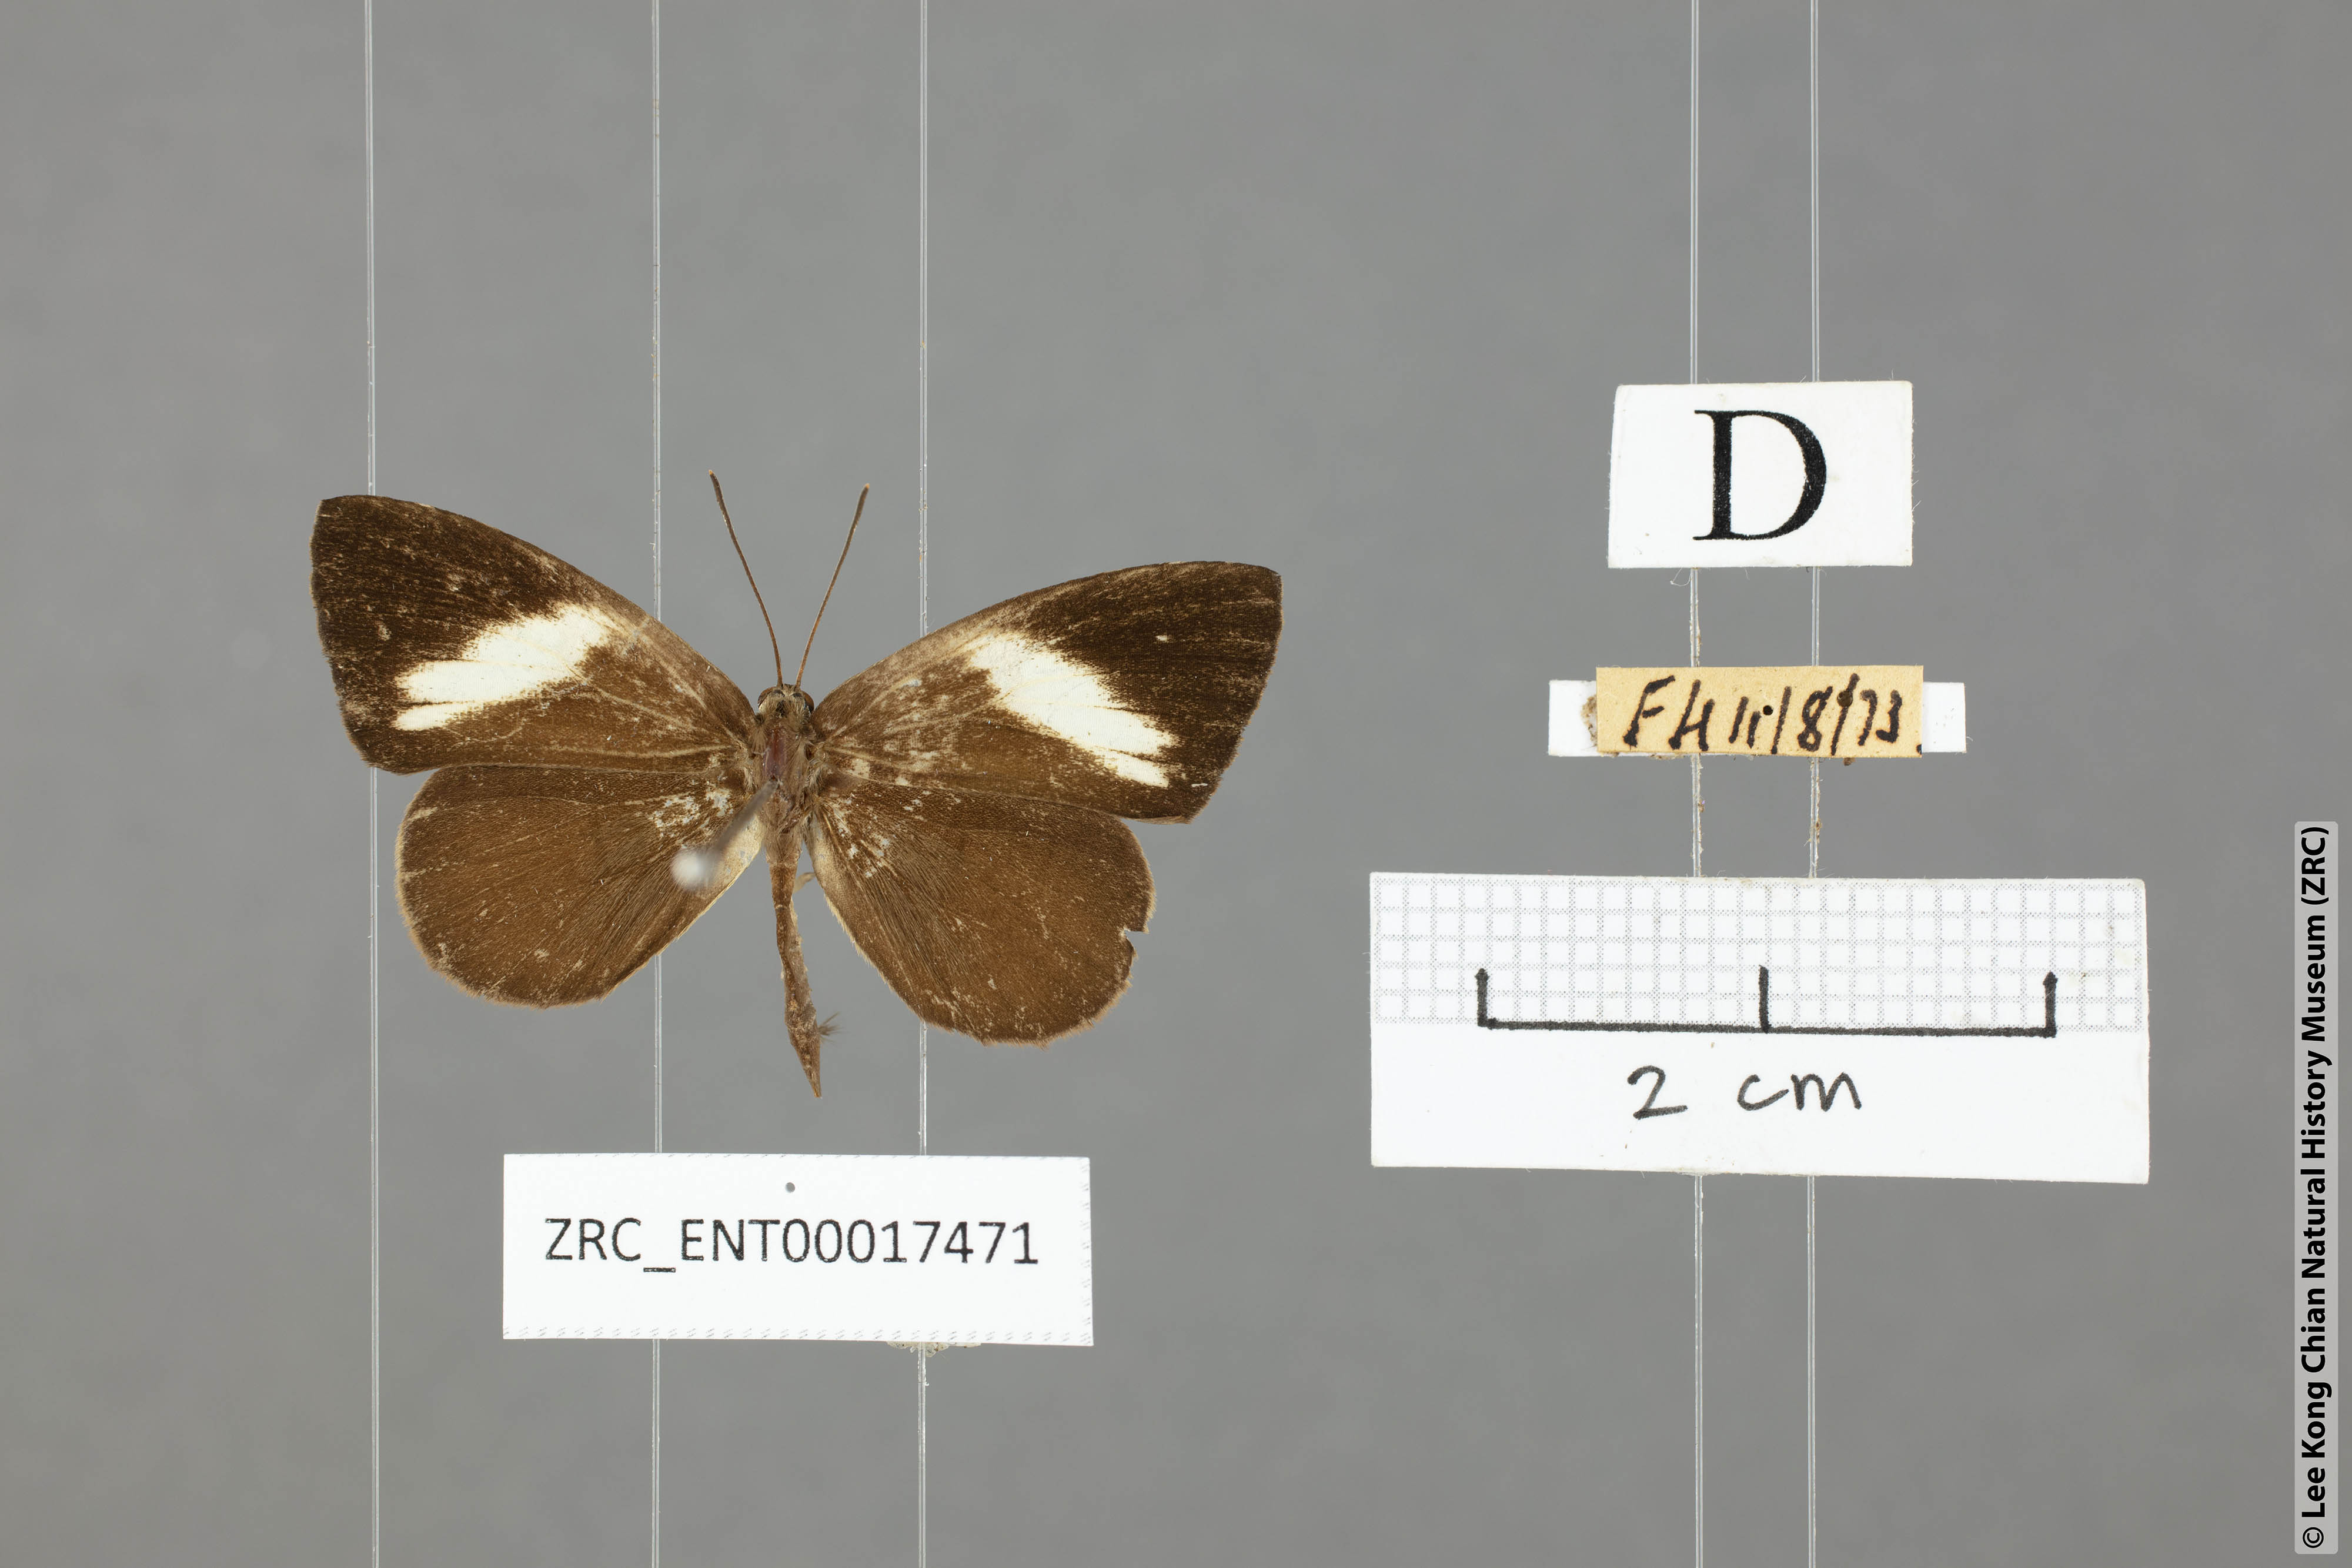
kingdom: Animalia
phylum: Arthropoda
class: Insecta
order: Lepidoptera
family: Lycaenidae
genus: Miletus
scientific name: Miletus nymphis
